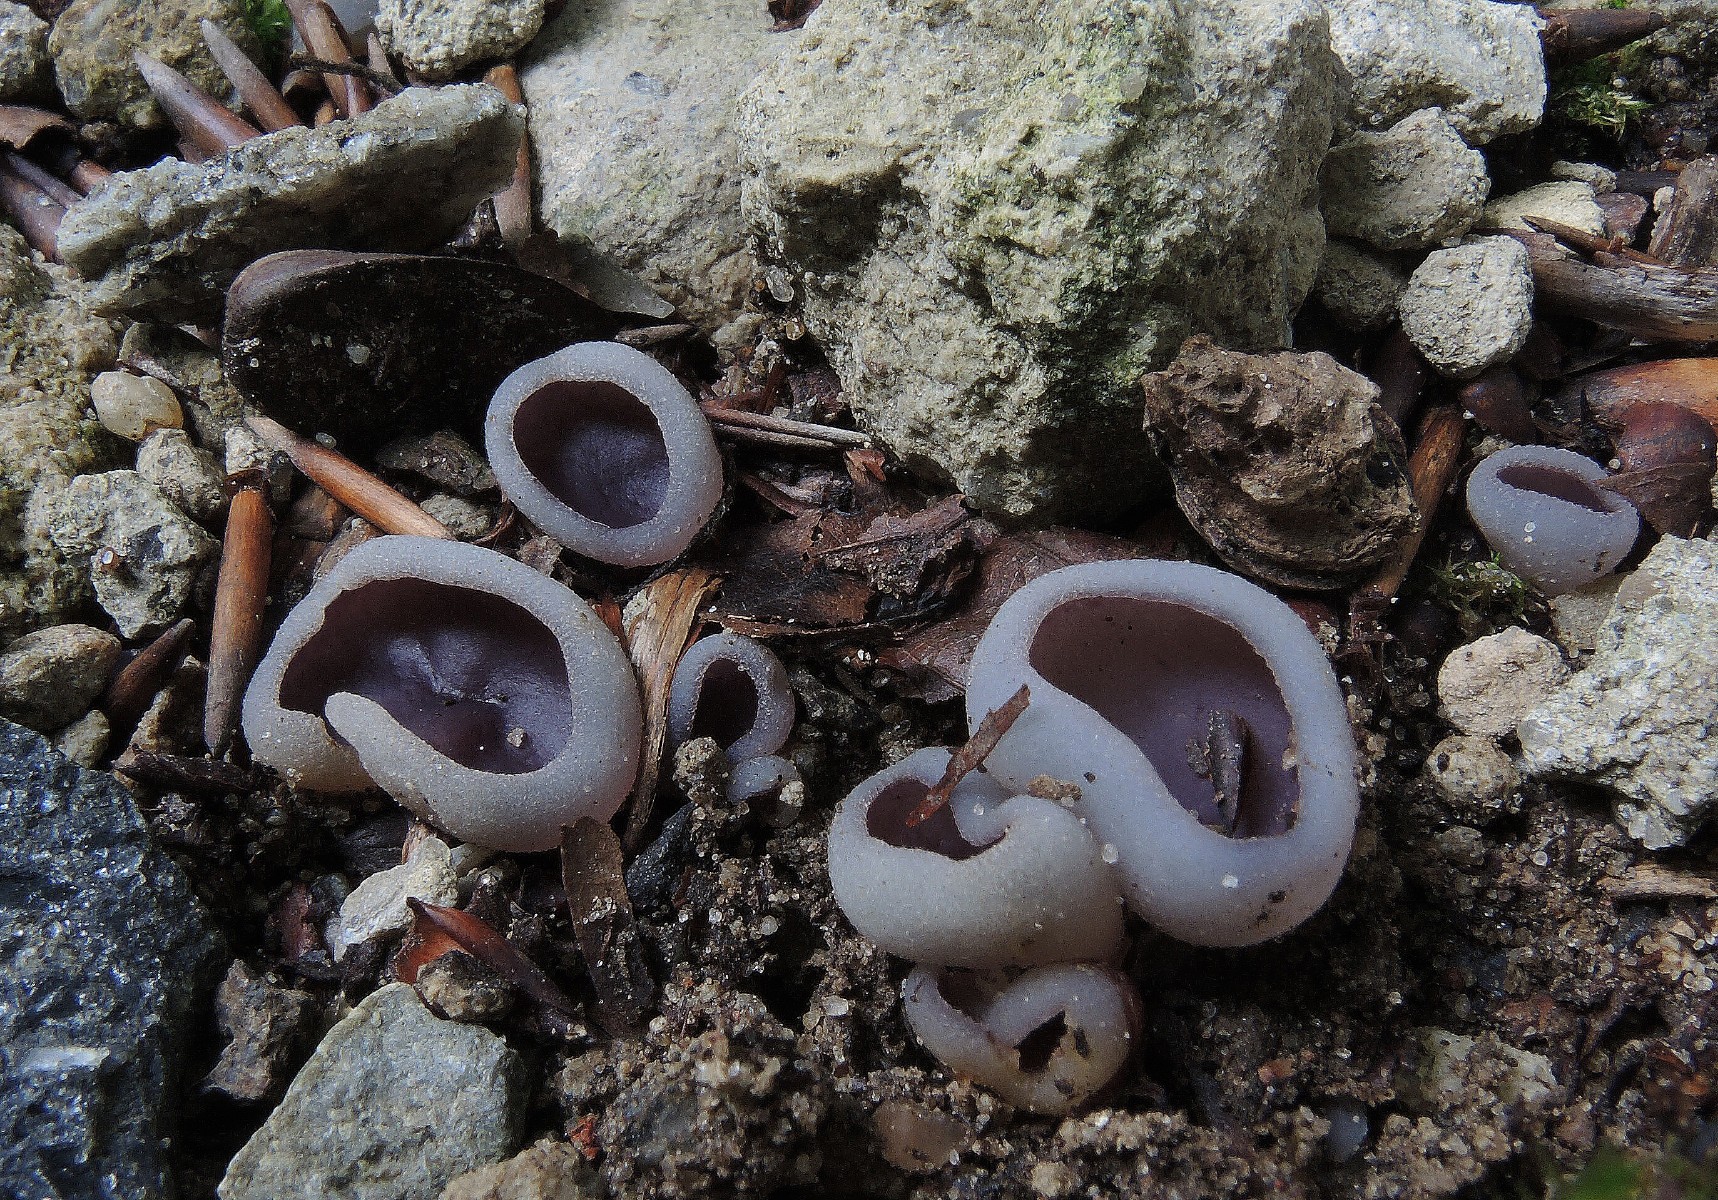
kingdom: Fungi
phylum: Ascomycota
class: Pezizomycetes
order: Pezizales
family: Pezizaceae
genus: Geoscypha
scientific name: Geoscypha tenacella
